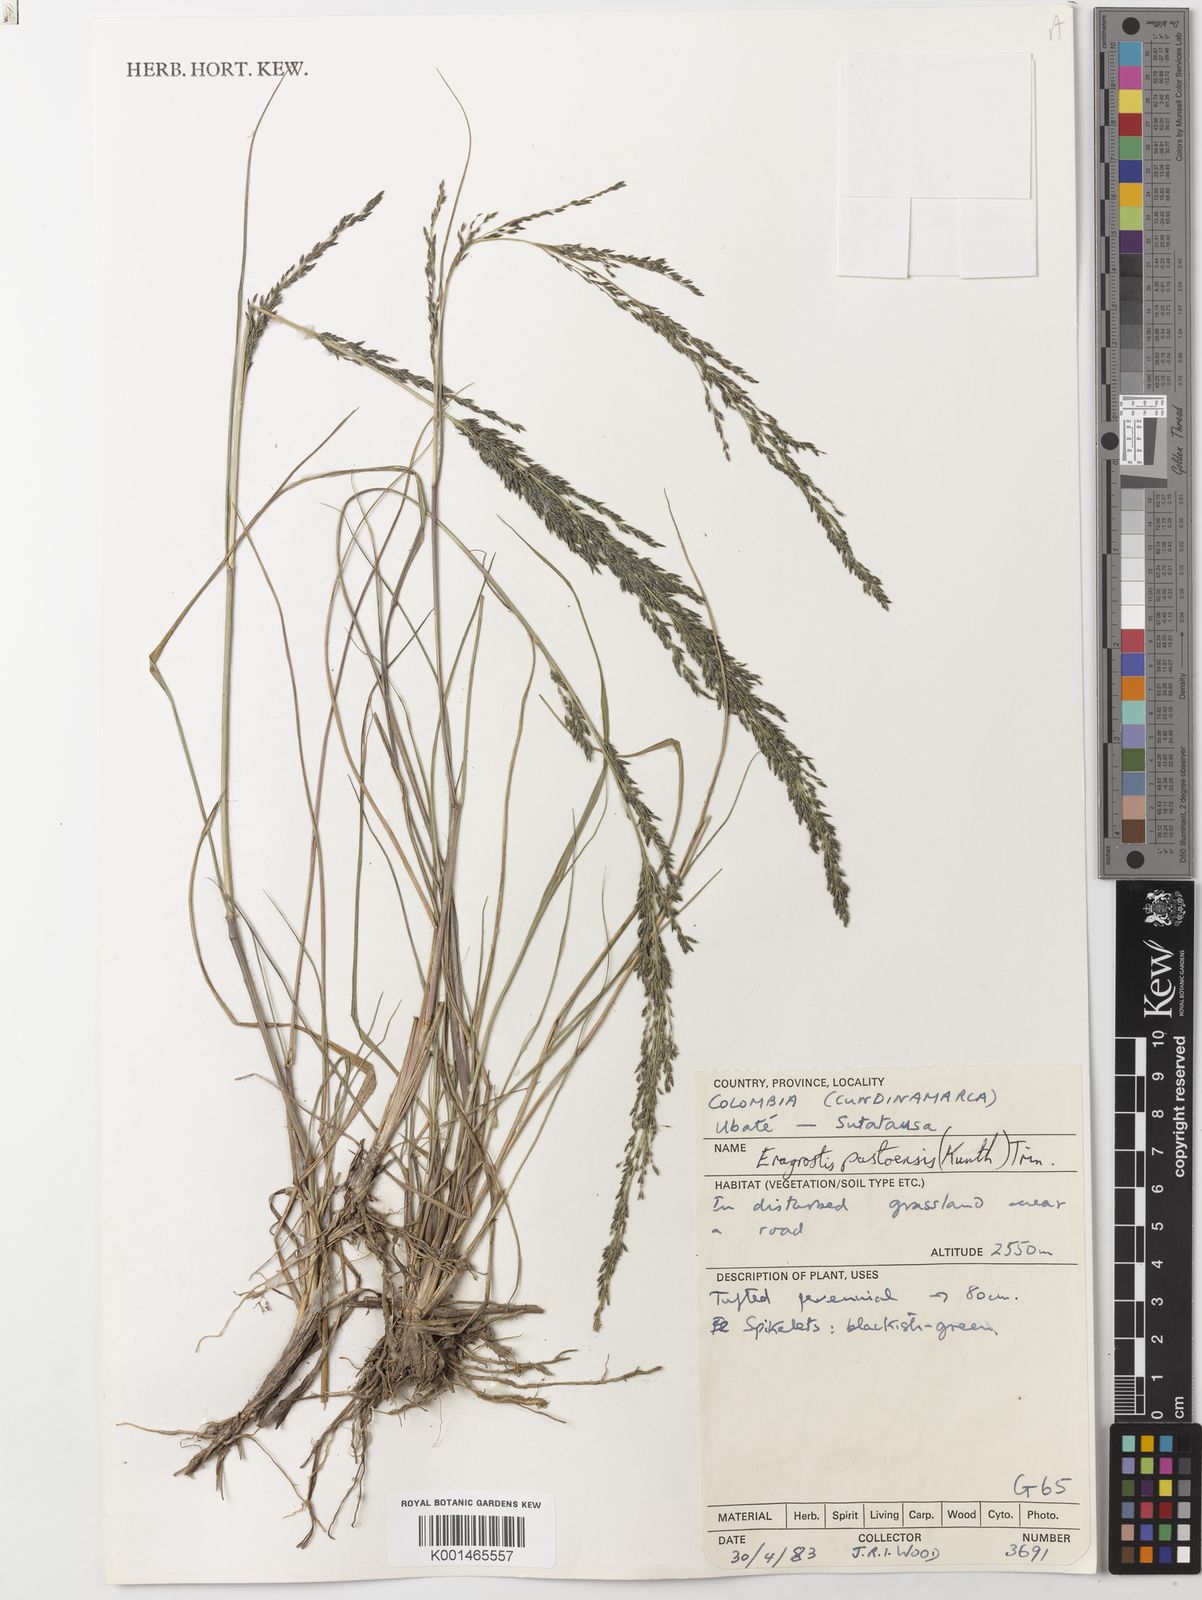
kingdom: Plantae
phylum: Tracheophyta
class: Liliopsida
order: Poales
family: Poaceae
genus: Eragrostis
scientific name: Eragrostis pastoensis
